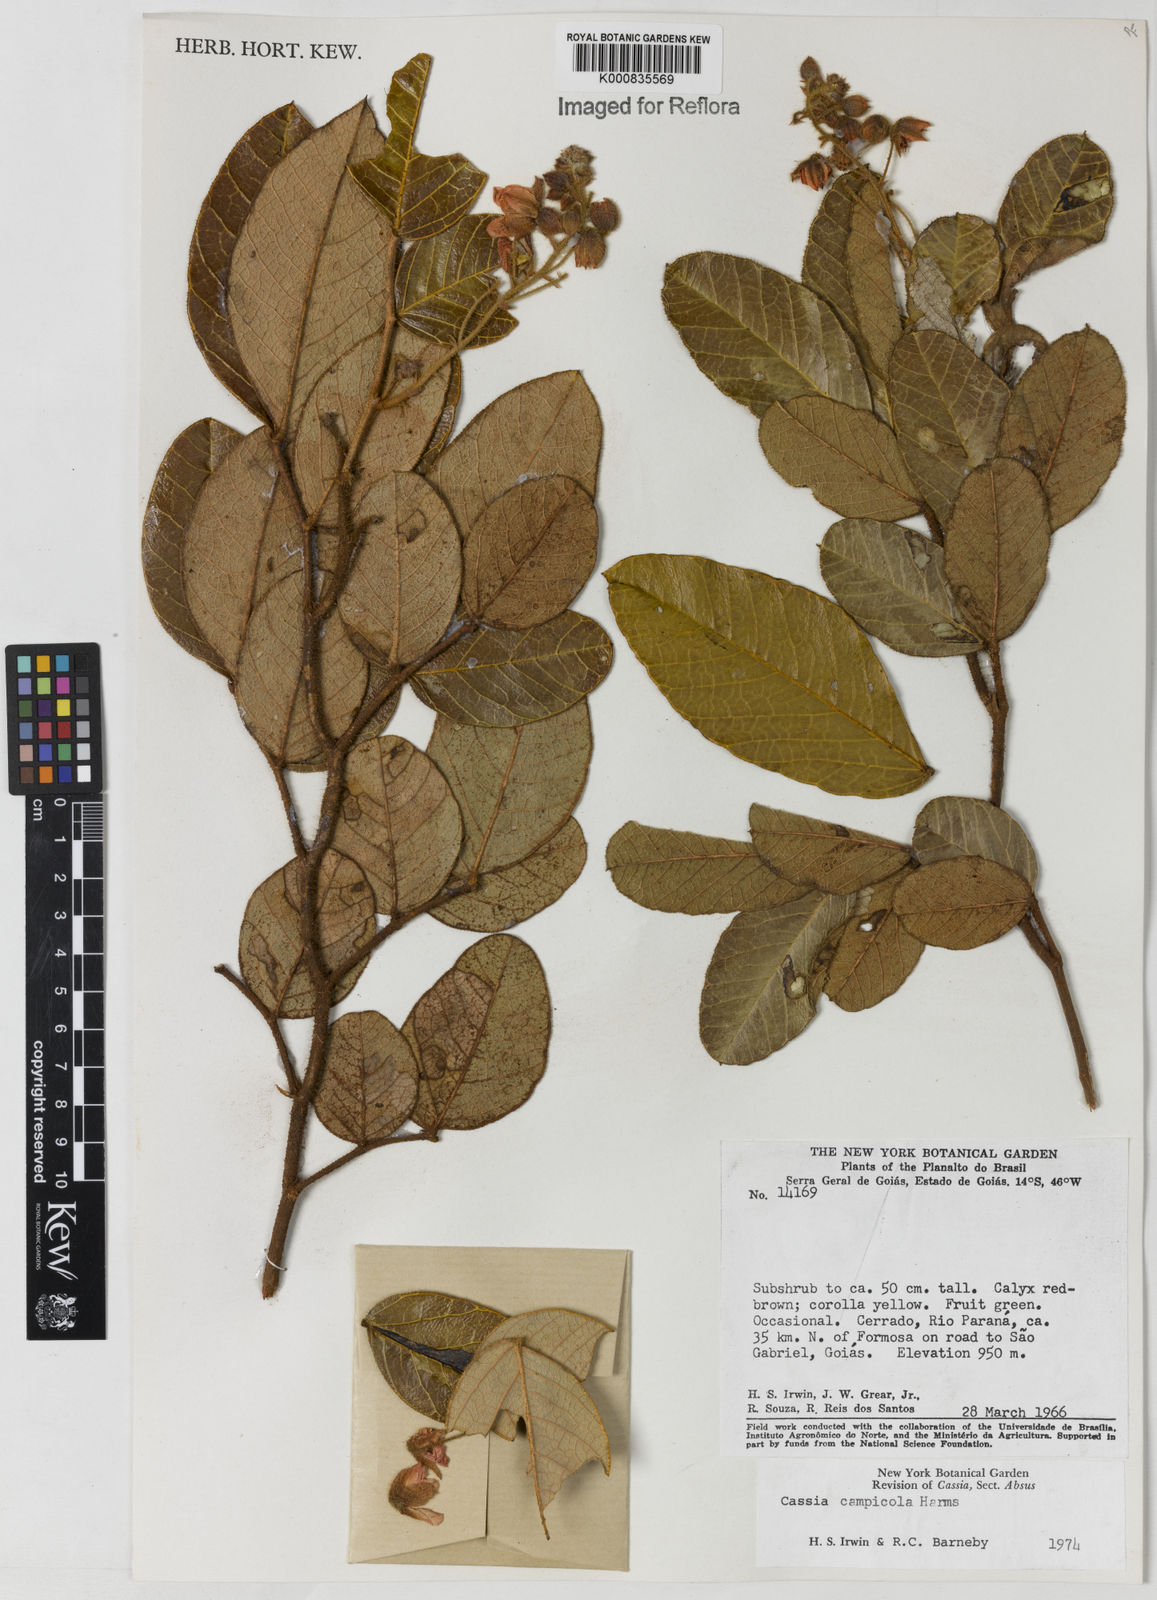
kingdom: Plantae
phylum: Tracheophyta
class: Magnoliopsida
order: Fabales
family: Fabaceae
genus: Chamaecrista
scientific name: Chamaecrista campicola
